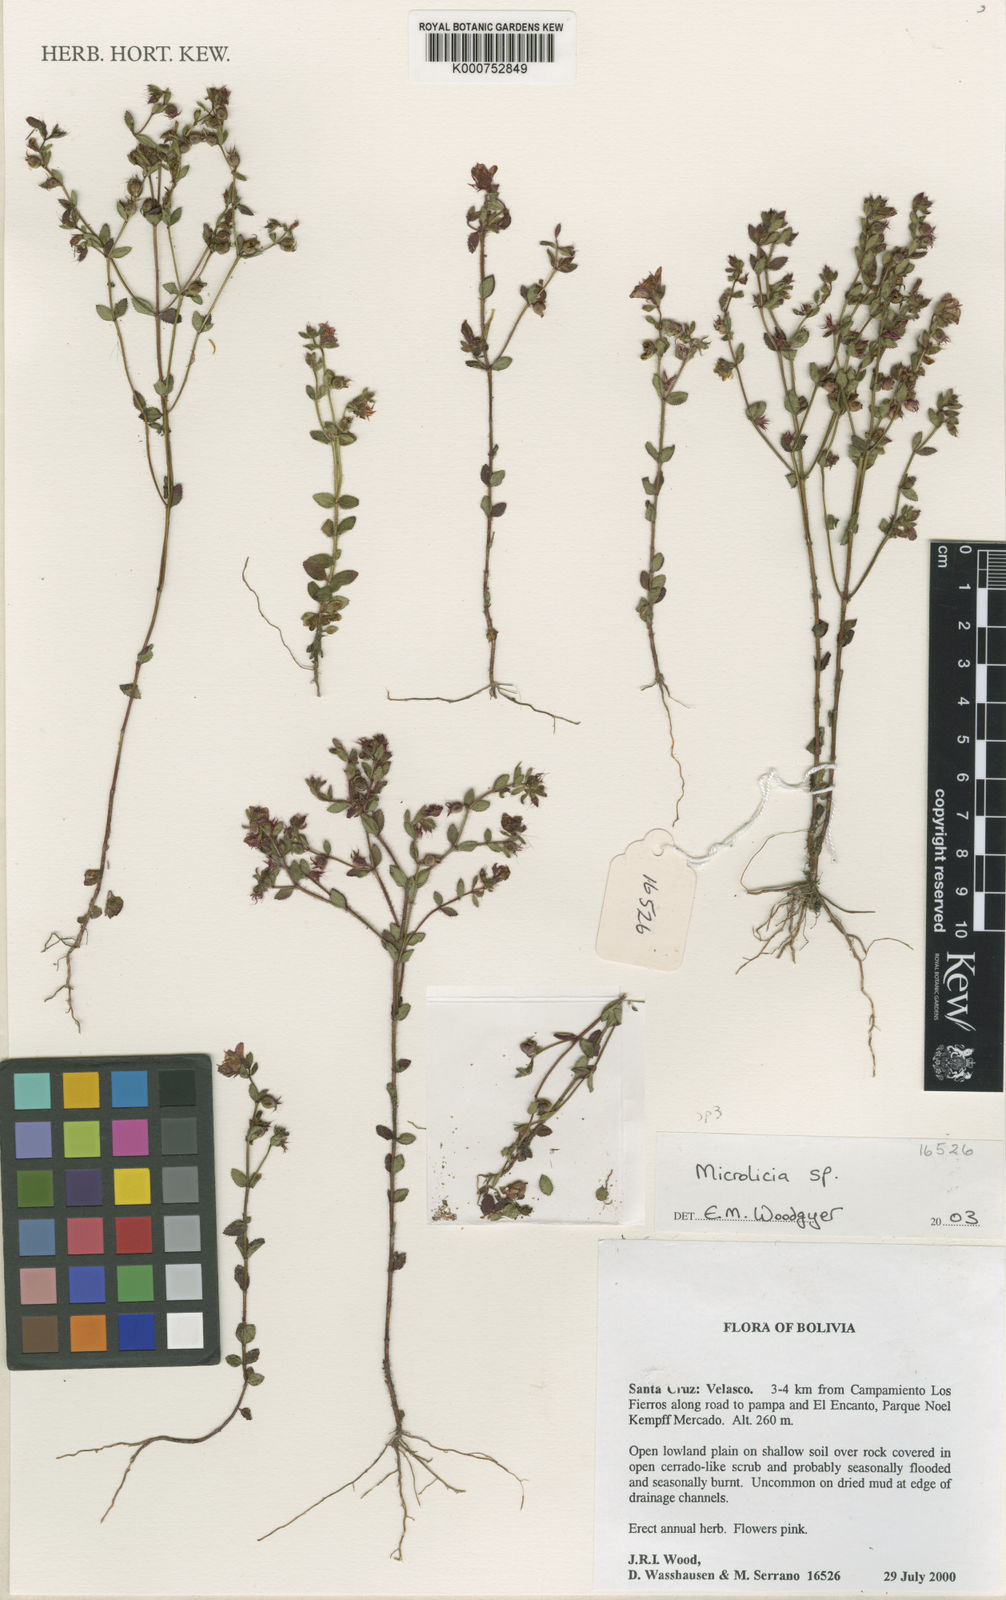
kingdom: Plantae
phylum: Tracheophyta
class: Magnoliopsida
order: Myrtales
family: Melastomataceae
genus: Microlicia
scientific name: Microlicia
